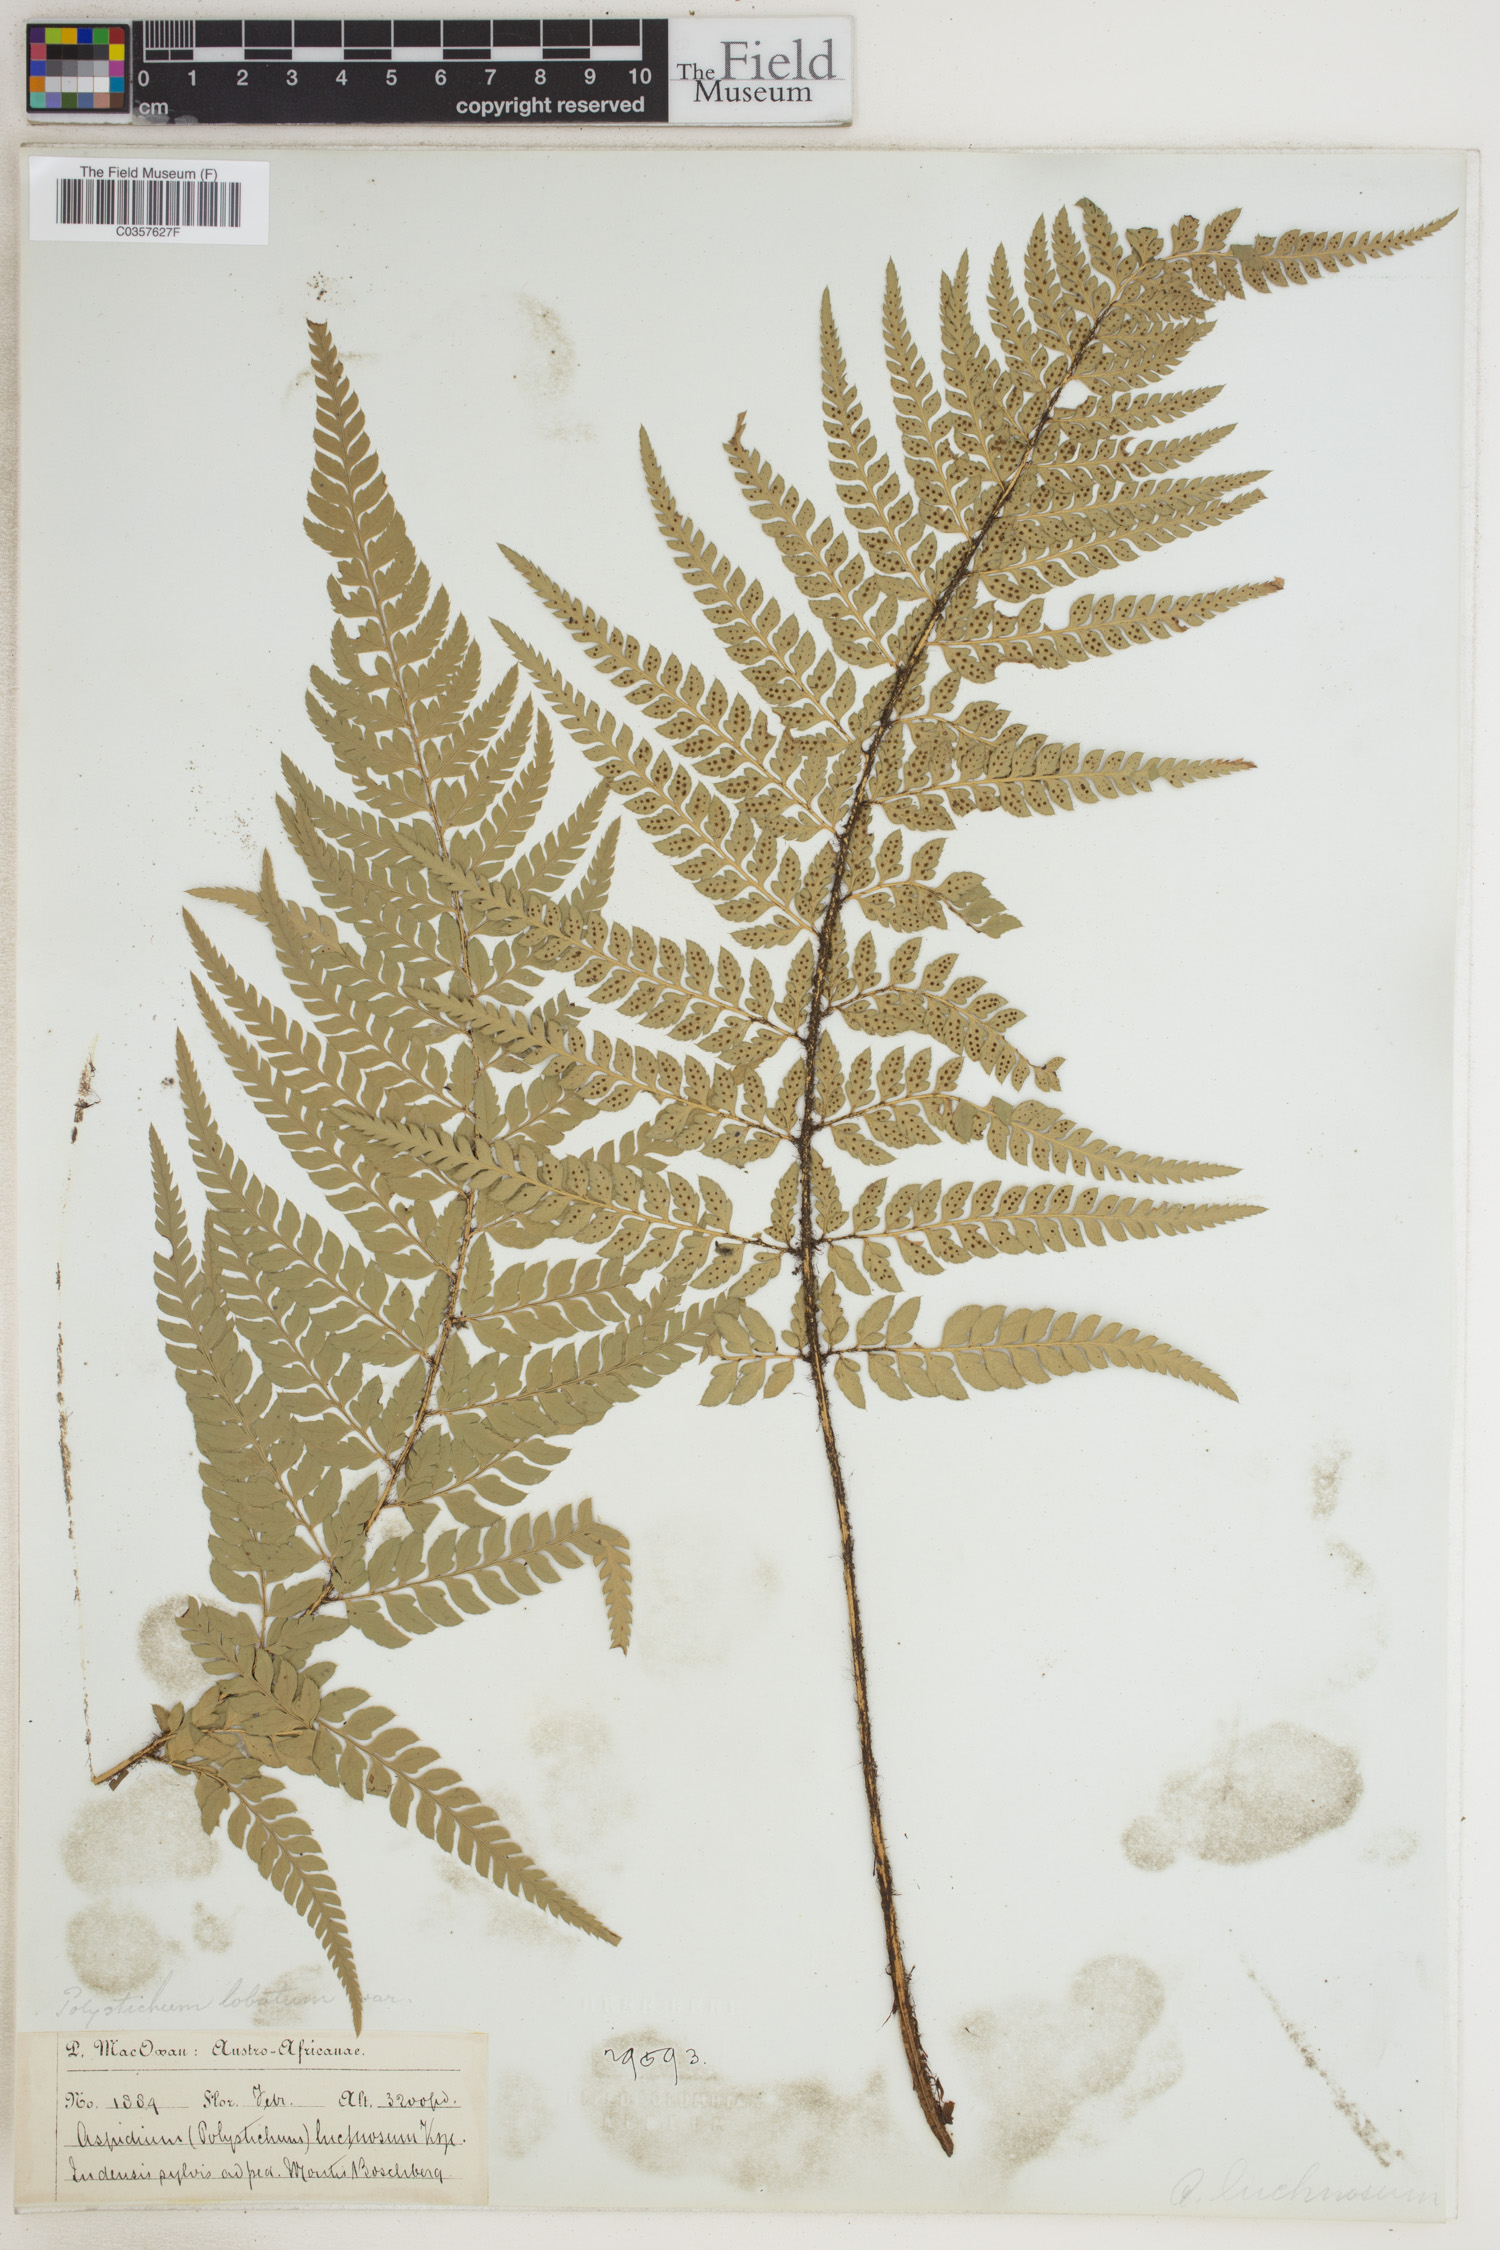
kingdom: Plantae
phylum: Tracheophyta
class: Polypodiopsida
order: Polypodiales
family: Dryopteridaceae
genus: Polystichum
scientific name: Polystichum aculeatum
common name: Hard shield-fern
